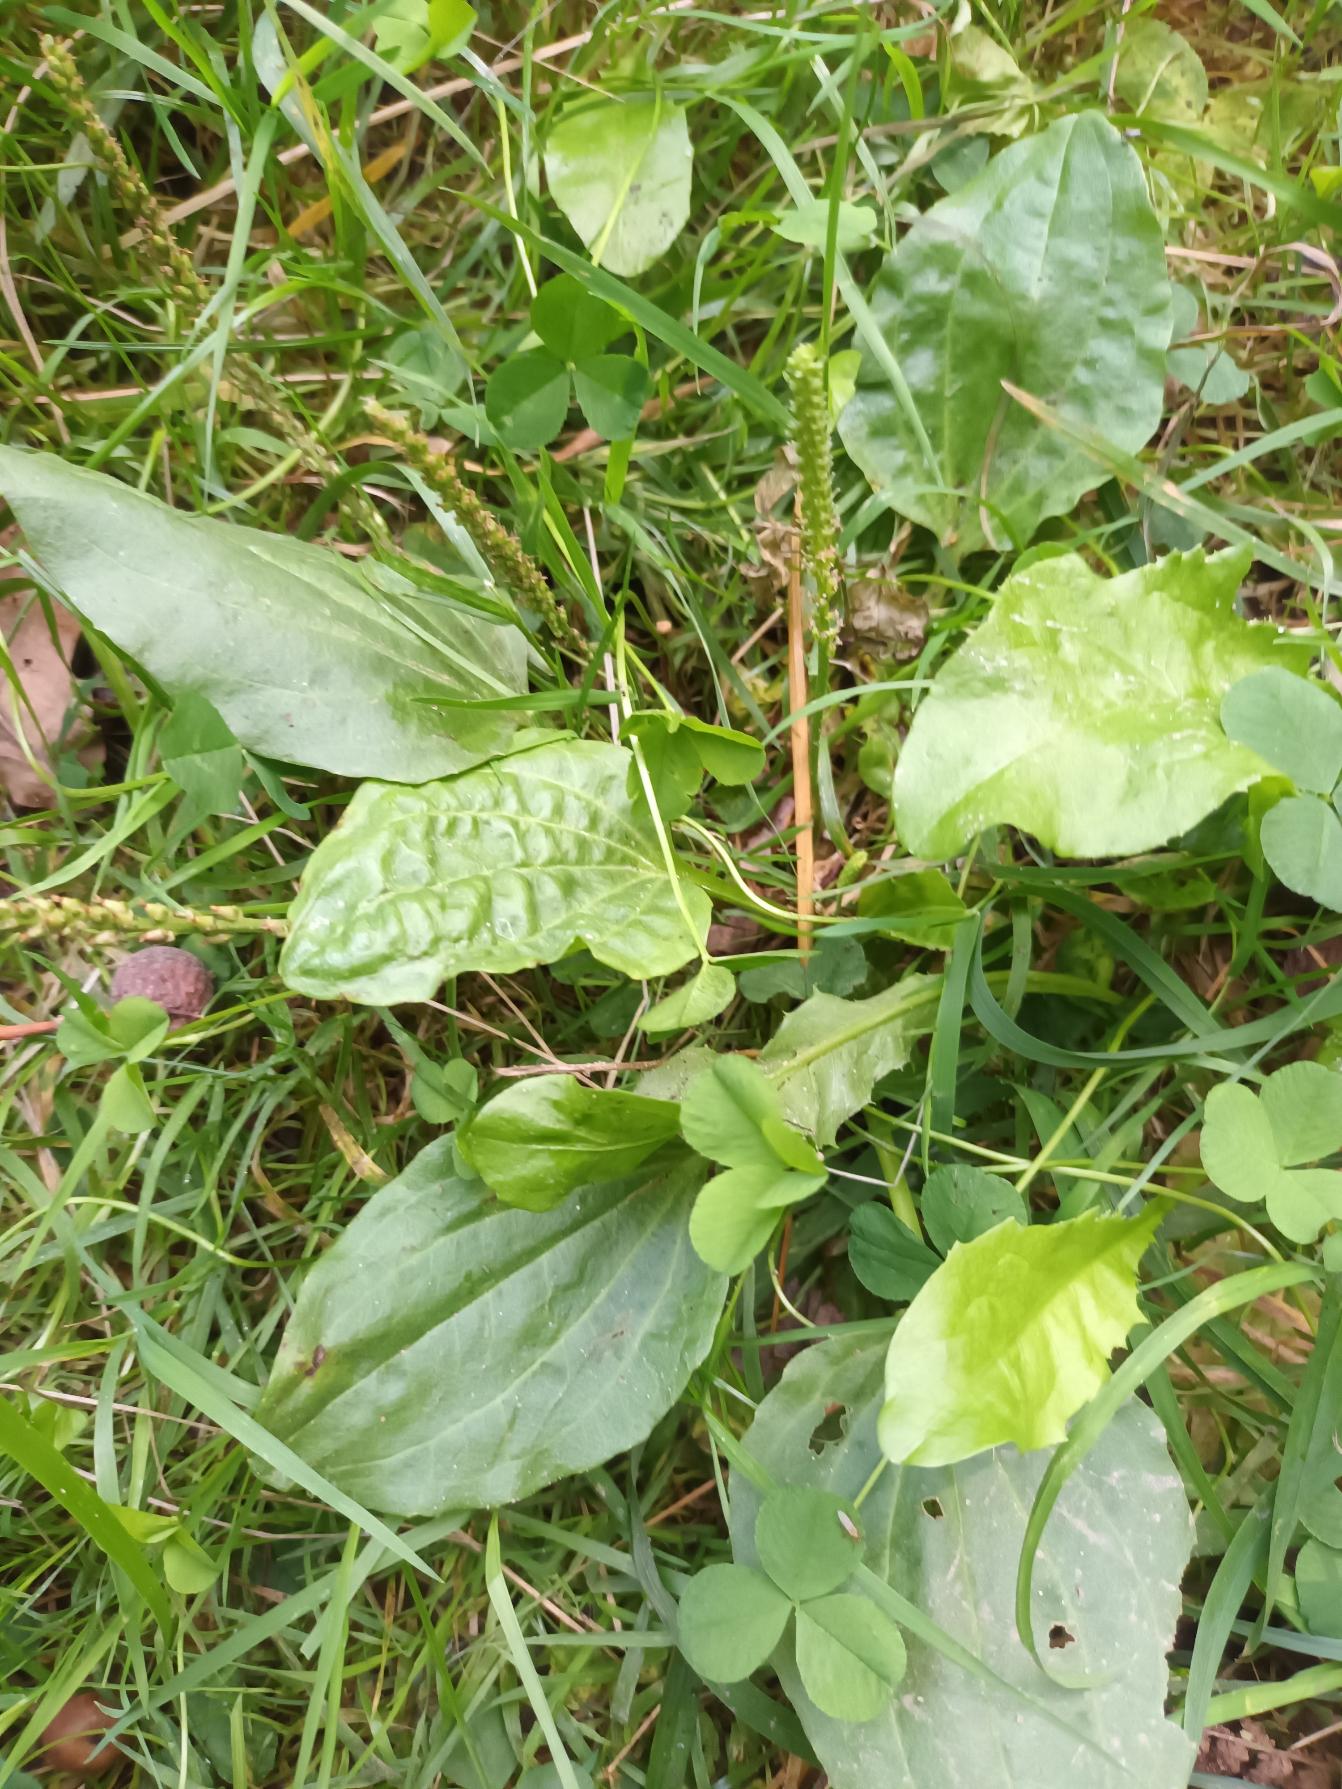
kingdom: Plantae
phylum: Tracheophyta
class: Magnoliopsida
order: Lamiales
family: Plantaginaceae
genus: Plantago
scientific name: Plantago major
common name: Glat vejbred
